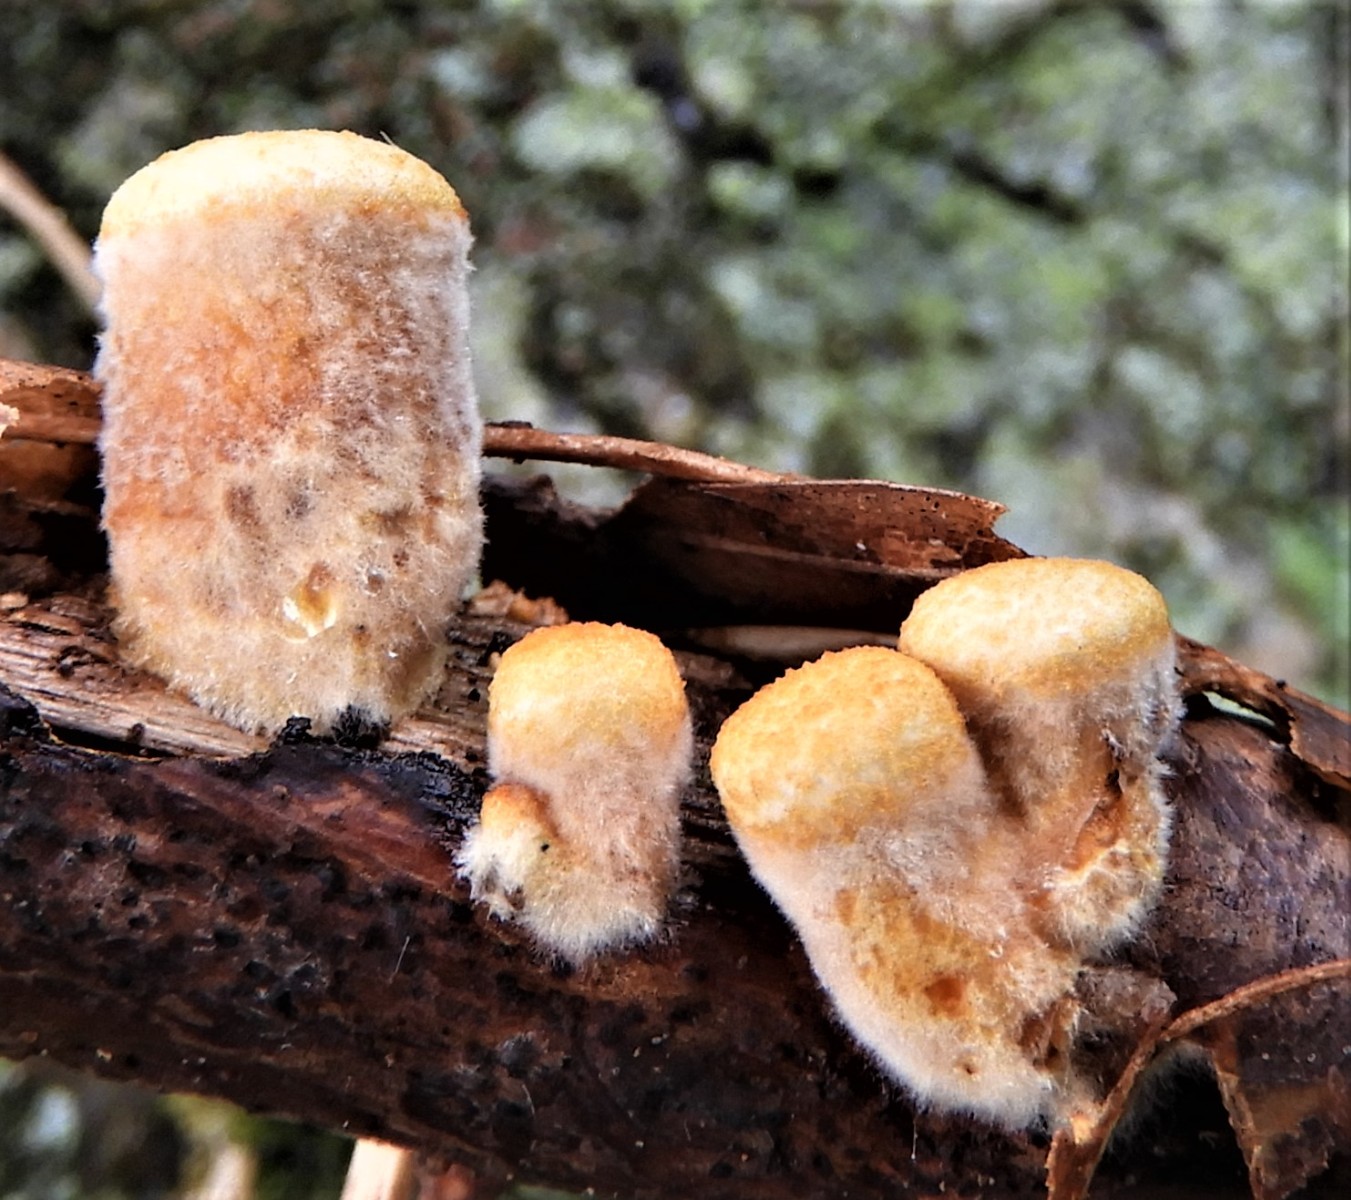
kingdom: Fungi
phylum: Basidiomycota
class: Agaricomycetes
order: Agaricales
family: Nidulariaceae
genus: Crucibulum
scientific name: Crucibulum crucibuliforme
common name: krukkesvamp
